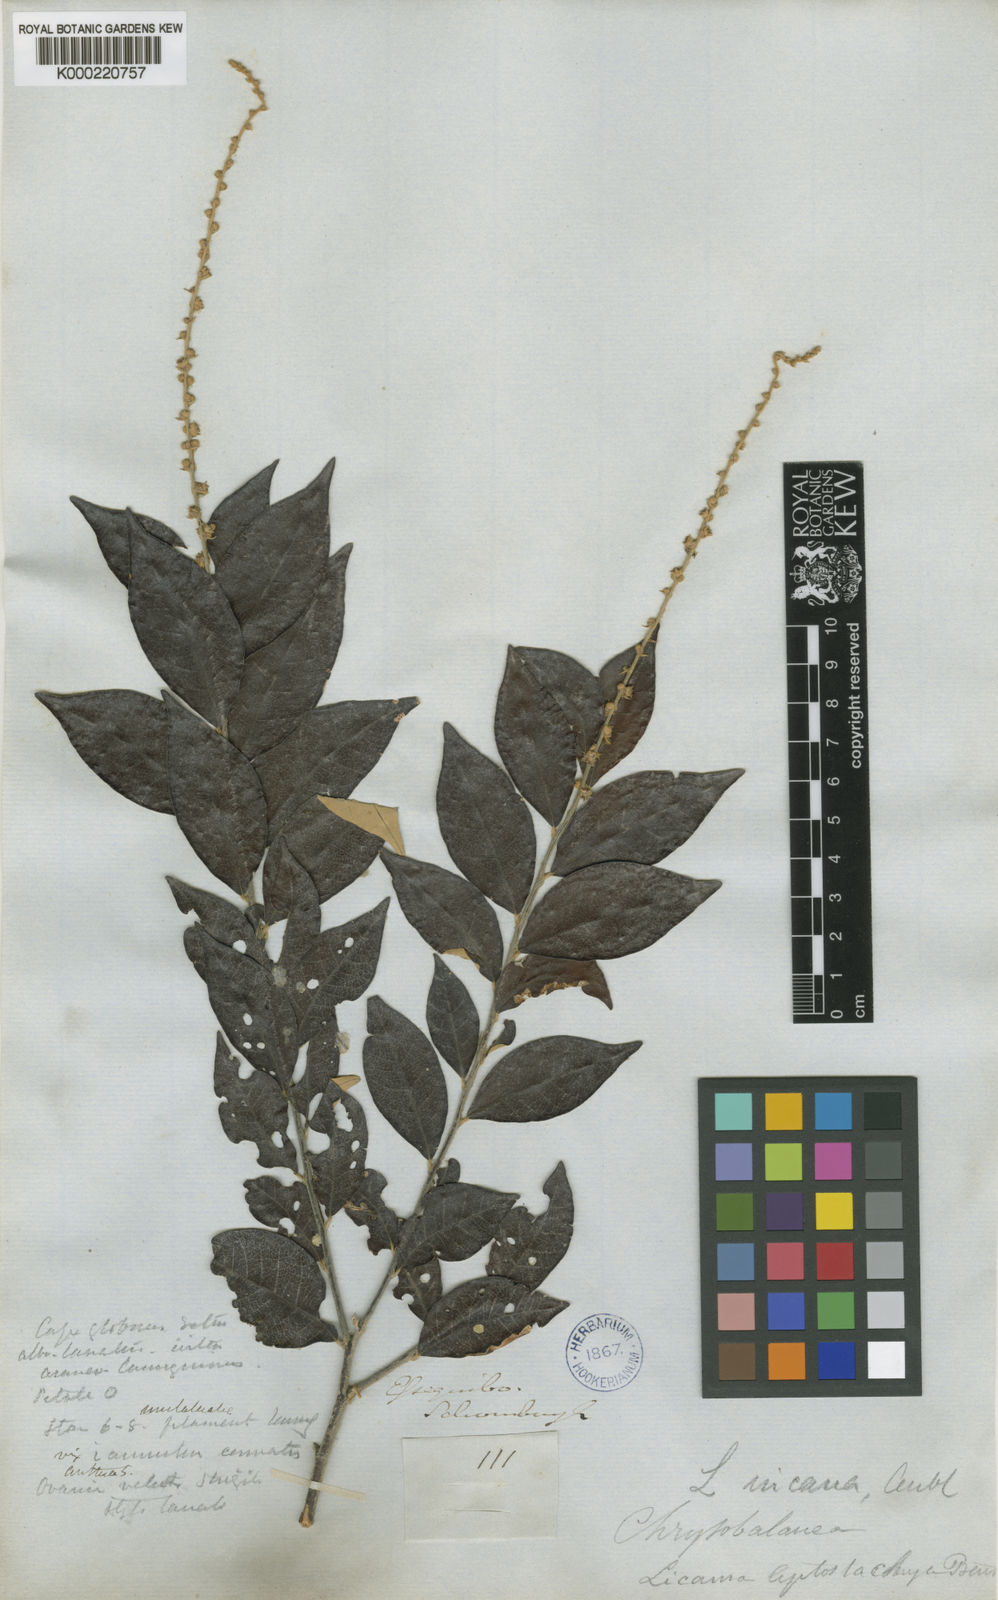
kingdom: Plantae
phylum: Tracheophyta
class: Magnoliopsida
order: Malpighiales
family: Chrysobalanaceae
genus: Licania
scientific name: Licania leptostachya
